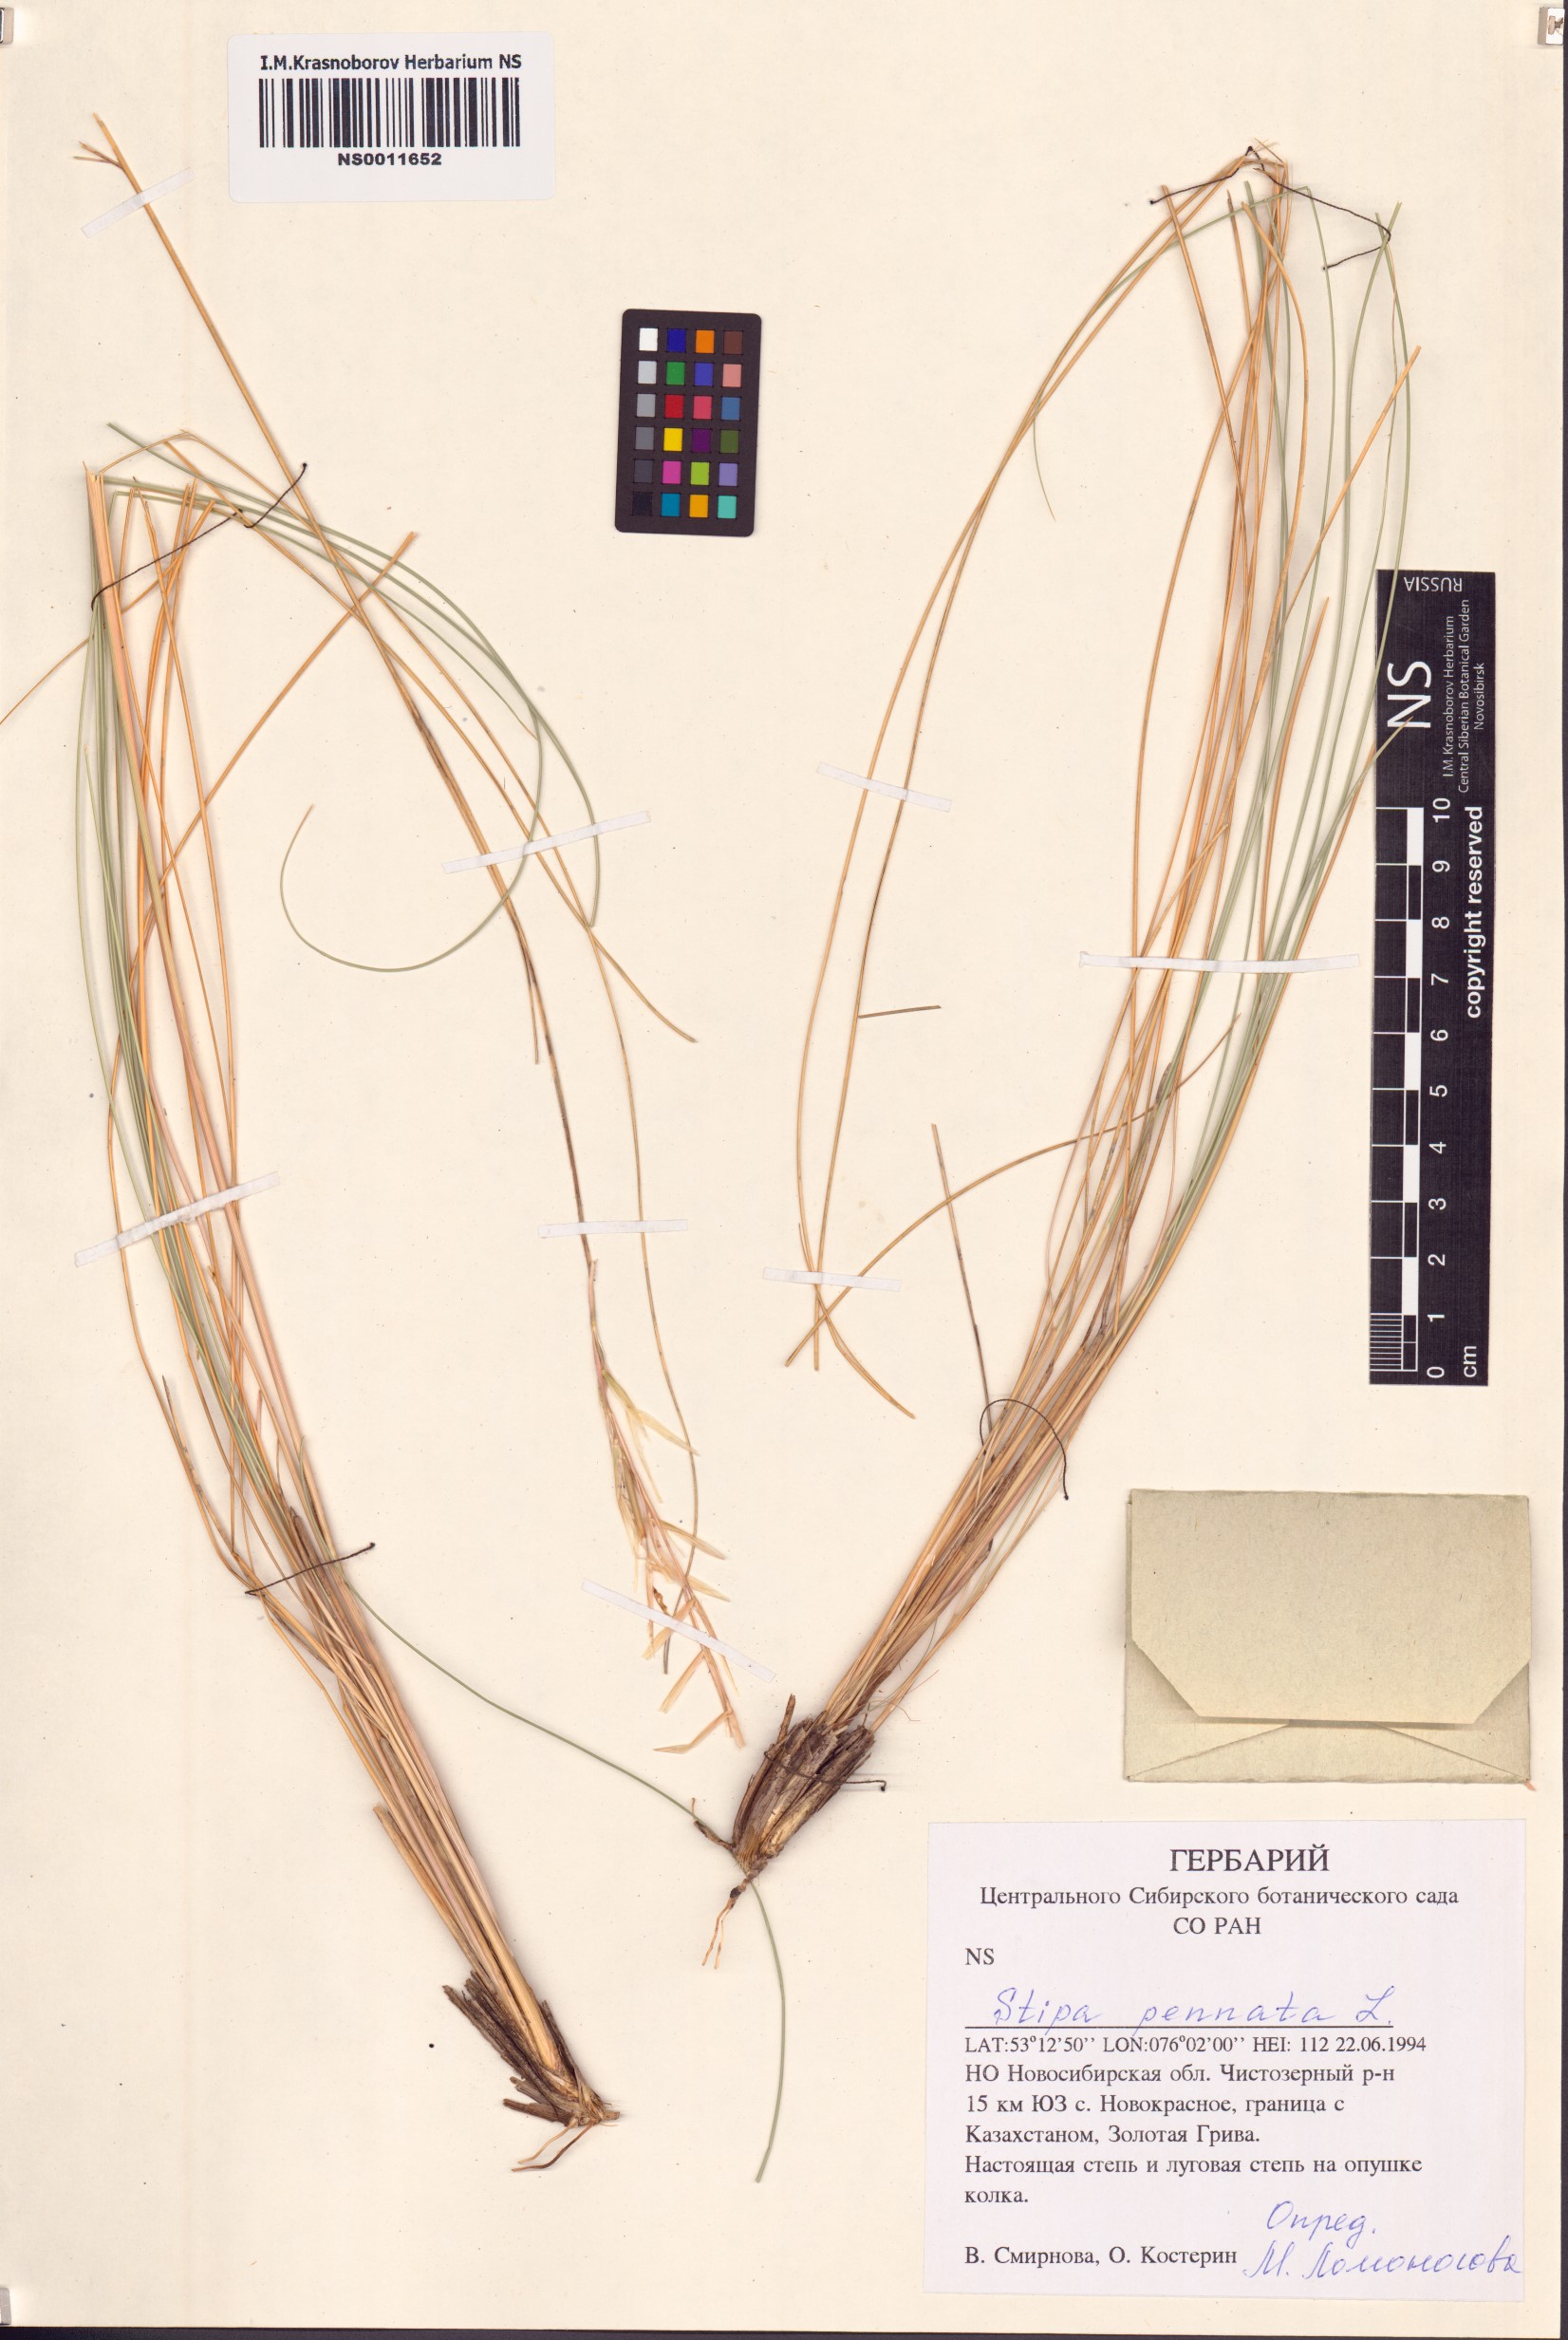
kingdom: Plantae
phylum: Tracheophyta
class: Liliopsida
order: Poales
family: Poaceae
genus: Stipa
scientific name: Stipa pennata
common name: European feather grass
